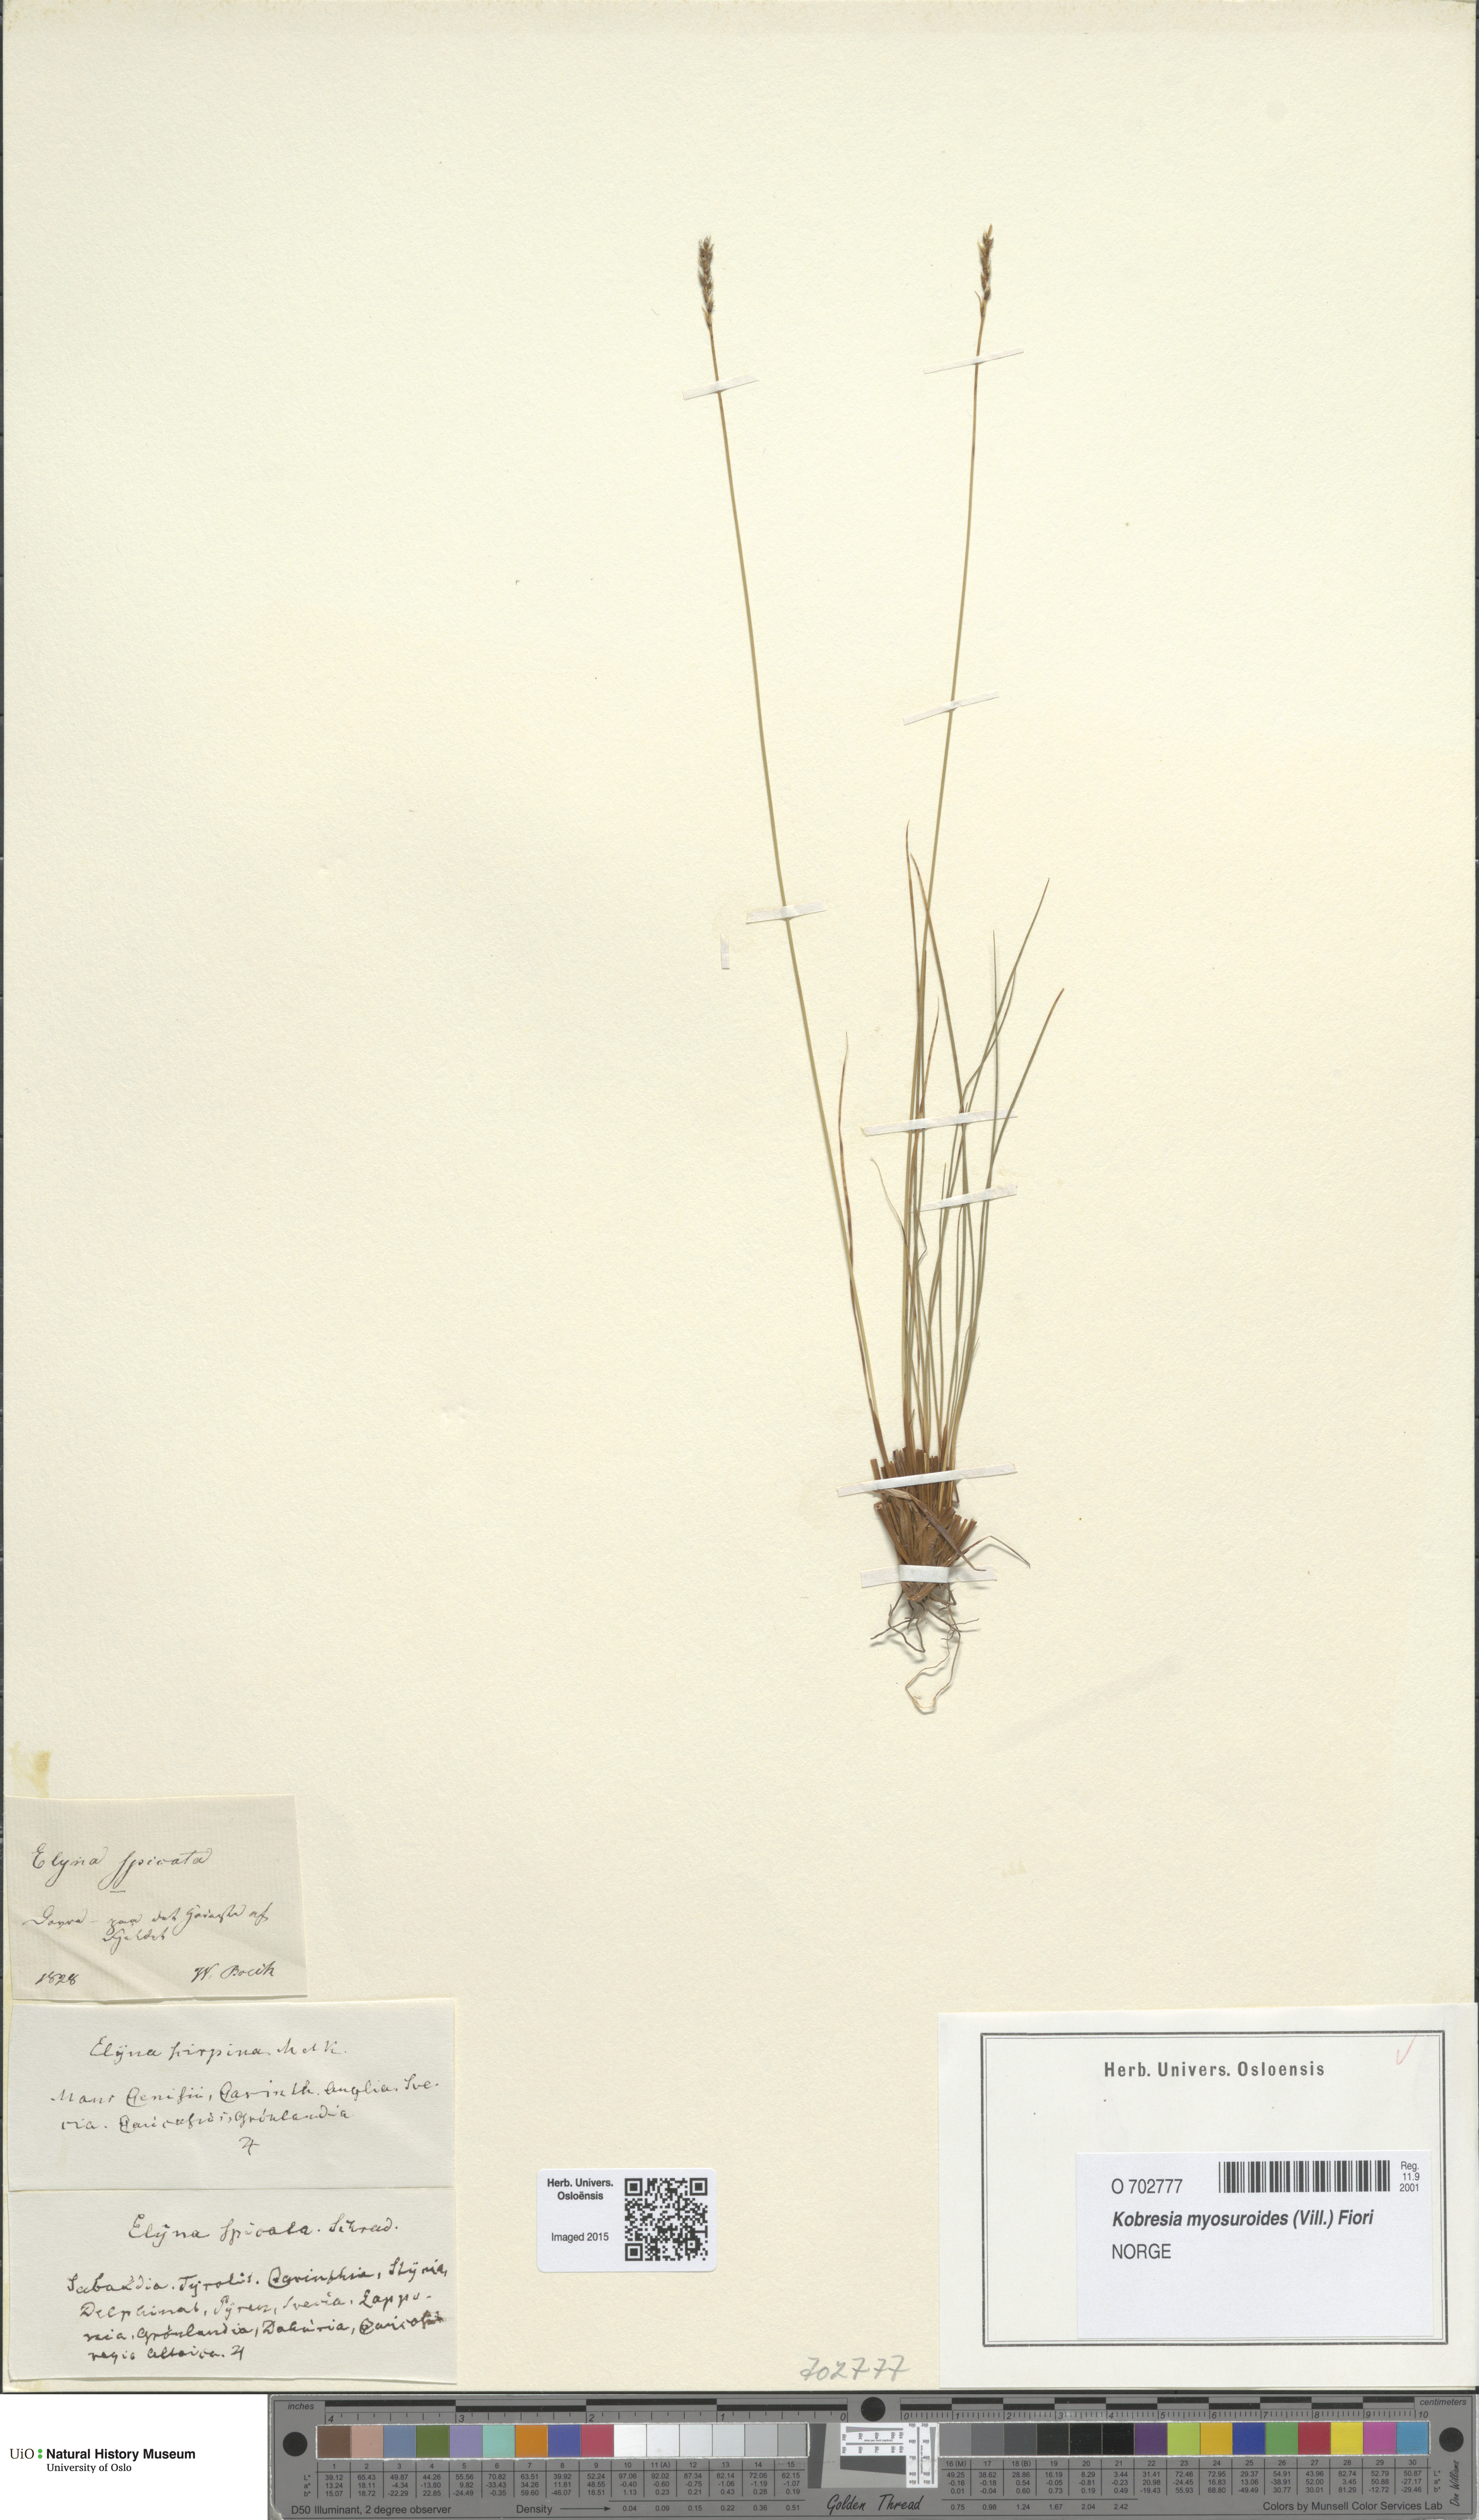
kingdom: Plantae
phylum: Tracheophyta
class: Liliopsida
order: Poales
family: Cyperaceae
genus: Carex
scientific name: Carex myosuroides
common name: Bellard's bog sedge
